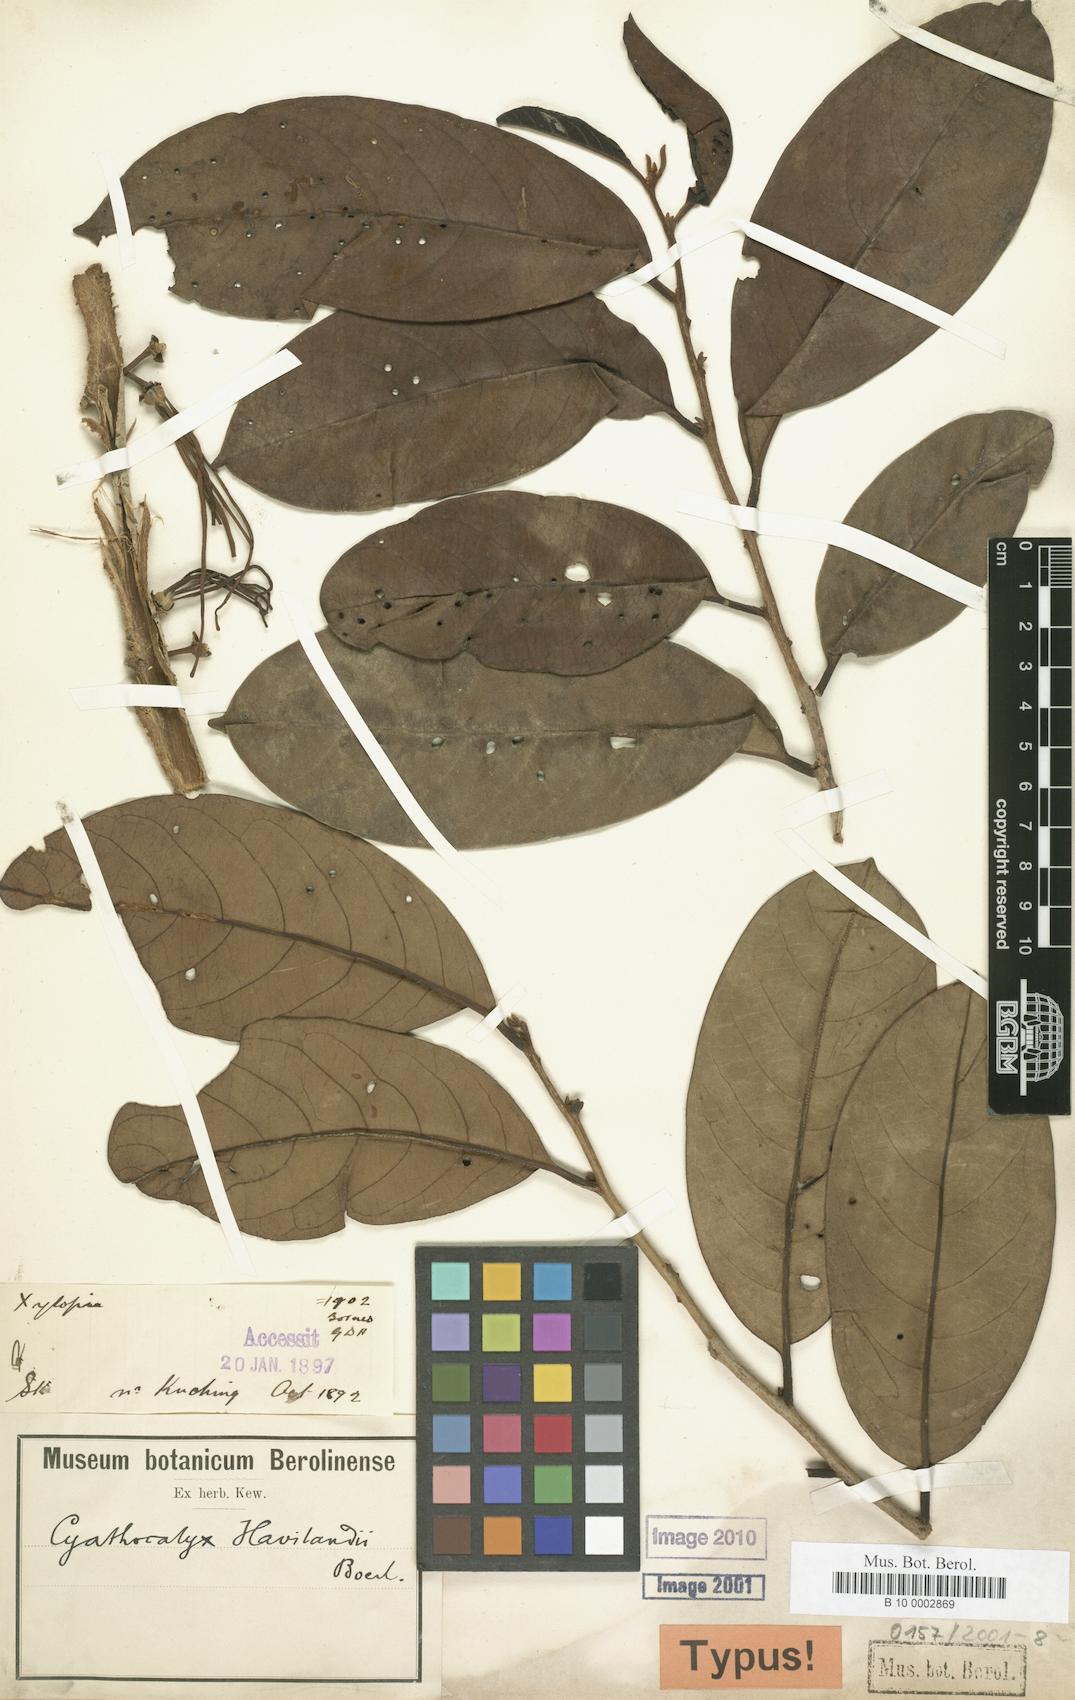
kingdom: Plantae
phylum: Tracheophyta
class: Magnoliopsida
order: Magnoliales
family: Annonaceae
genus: Drepananthus
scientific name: Drepananthus havilandii
